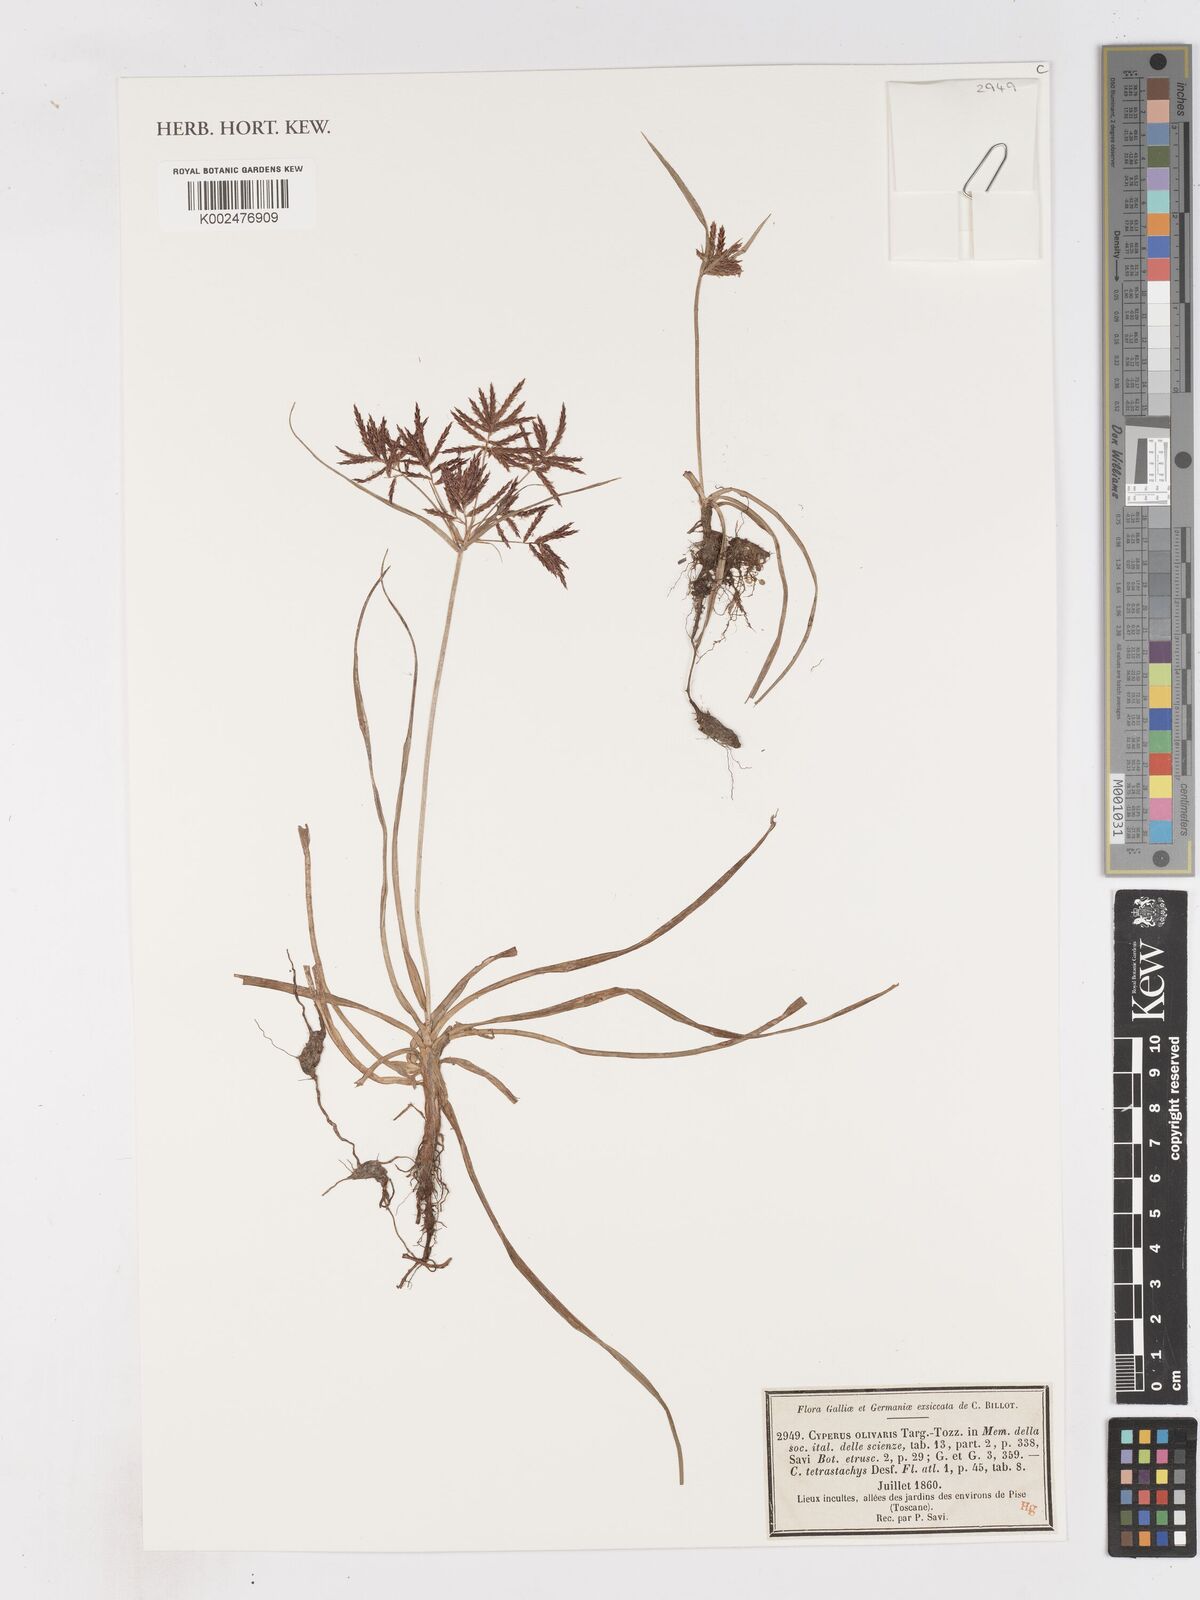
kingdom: Plantae
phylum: Tracheophyta
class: Liliopsida
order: Poales
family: Cyperaceae
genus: Cyperus
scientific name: Cyperus rotundus
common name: Nutgrass
